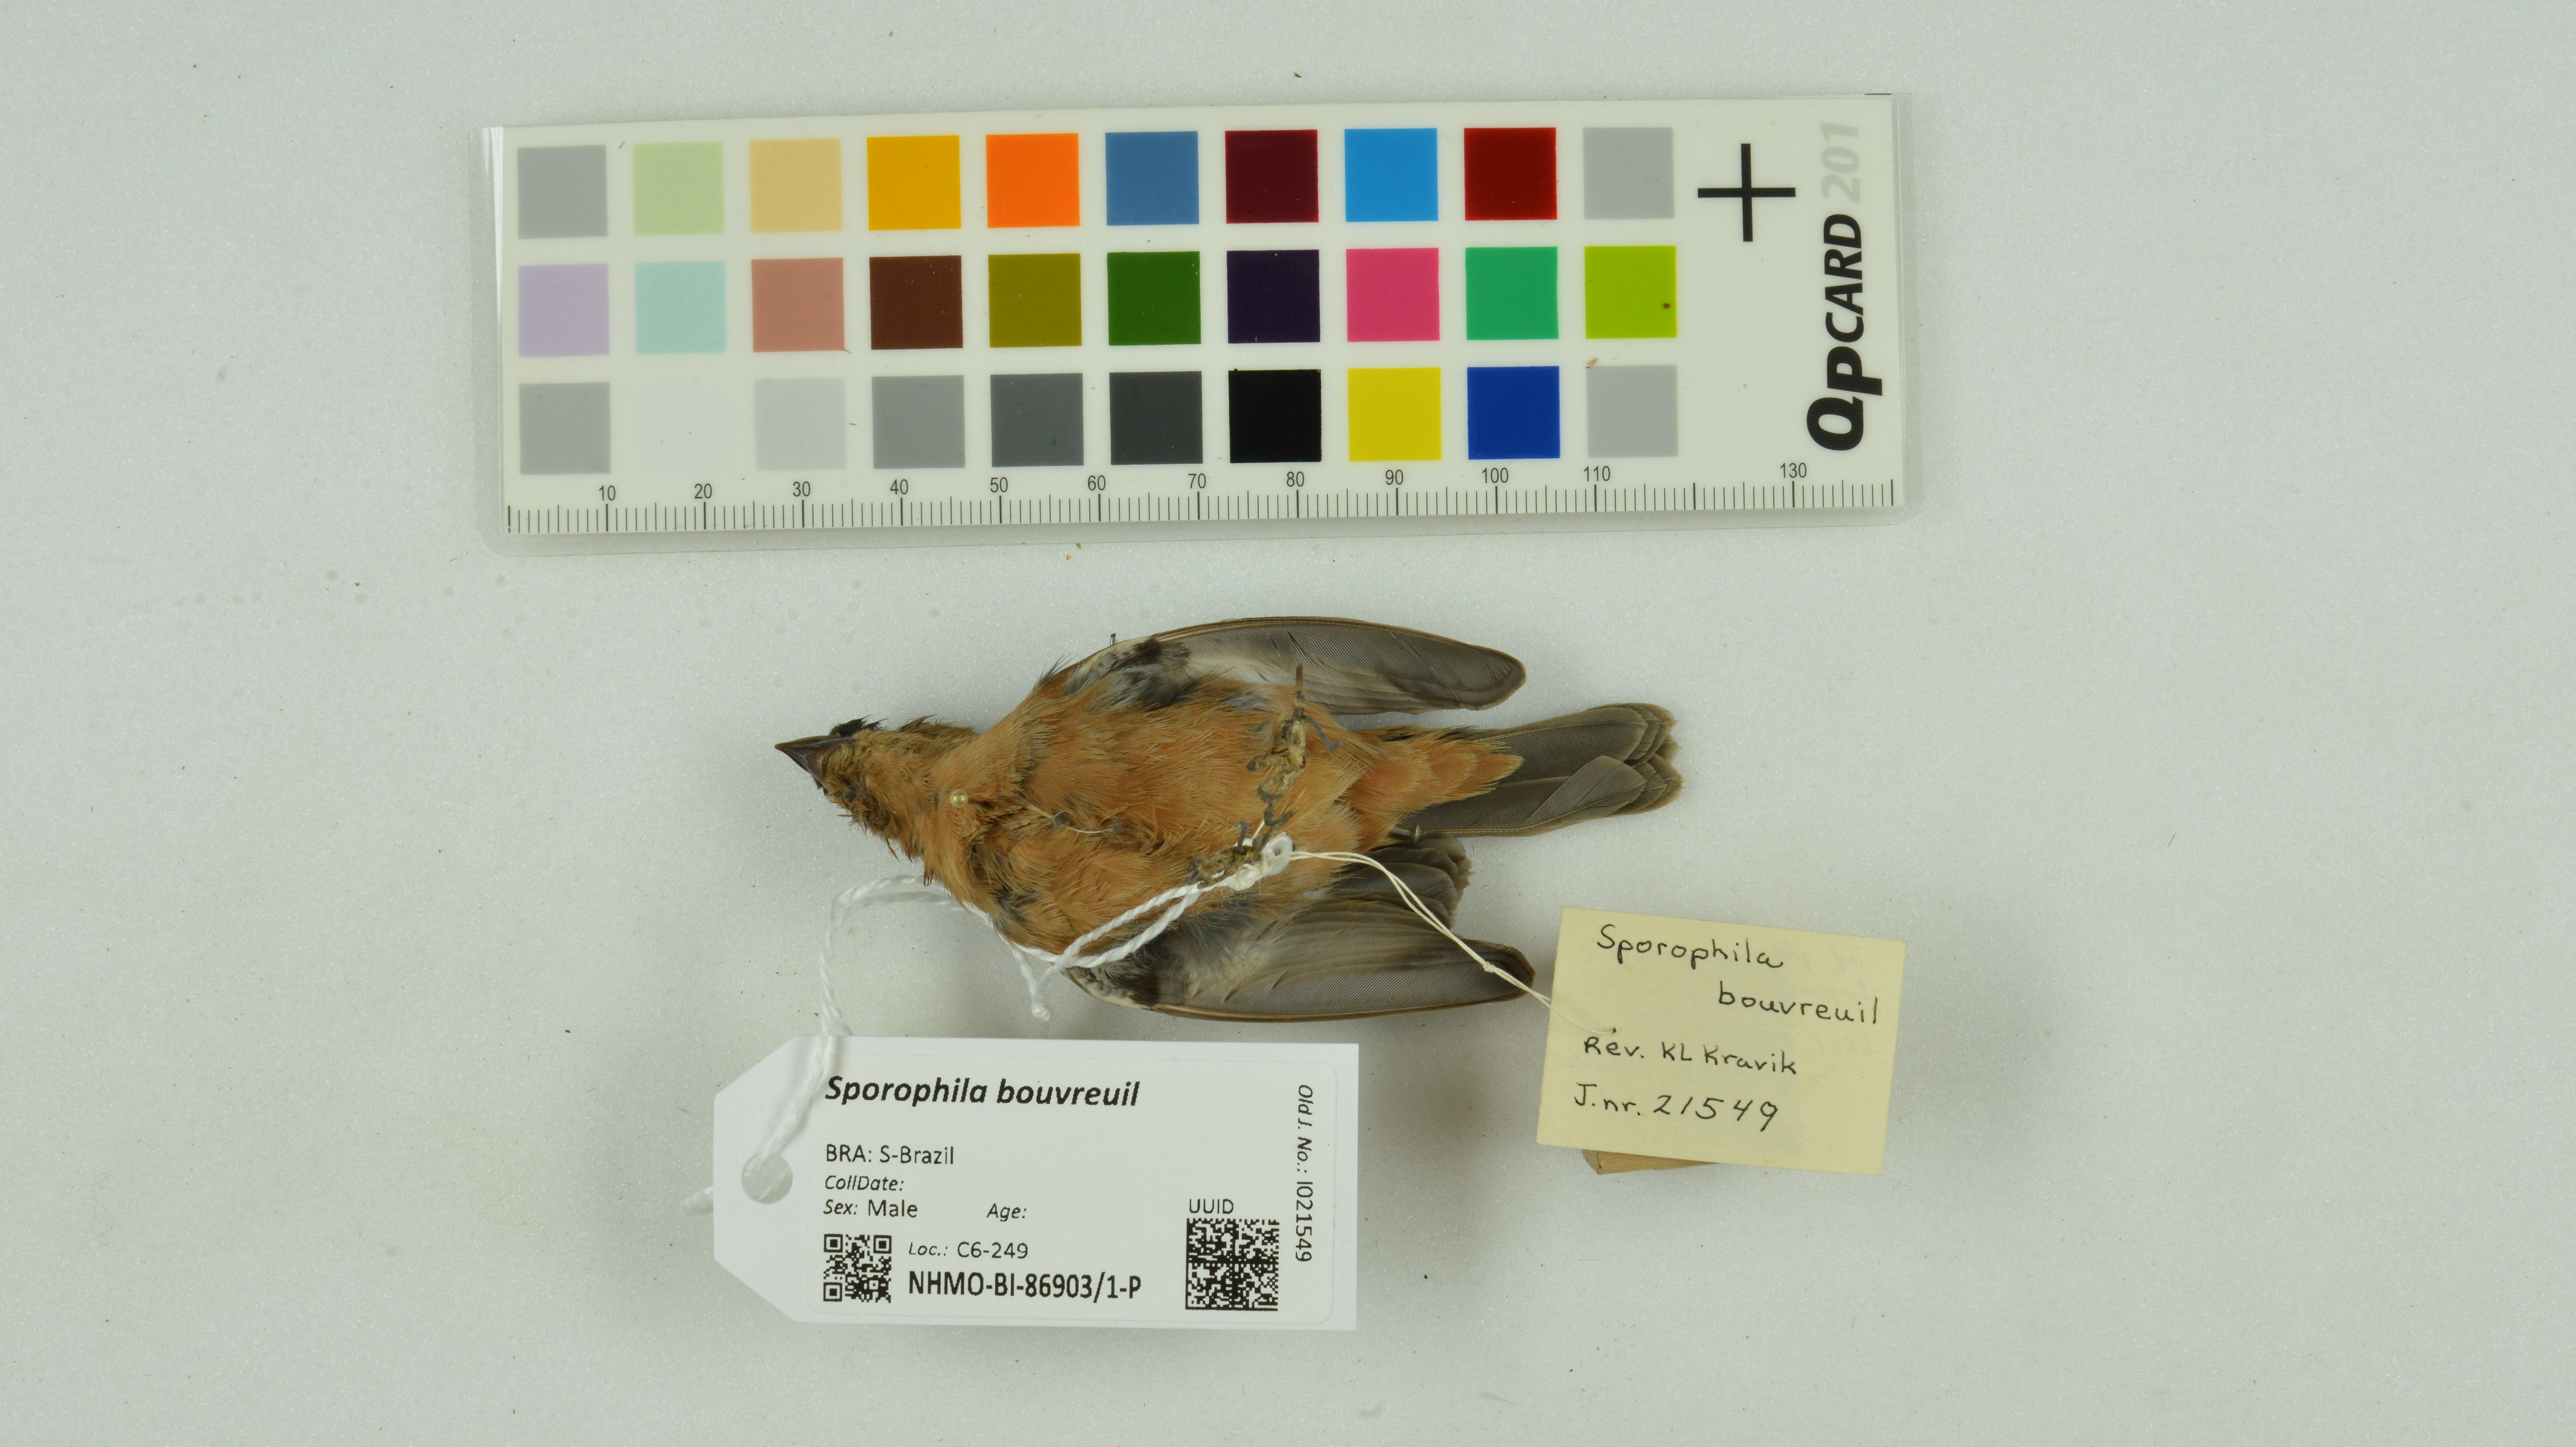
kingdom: Animalia
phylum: Chordata
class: Aves
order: Passeriformes
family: Thraupidae
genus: Sporophila
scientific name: Sporophila bouvreuil
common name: Copper seedeater
